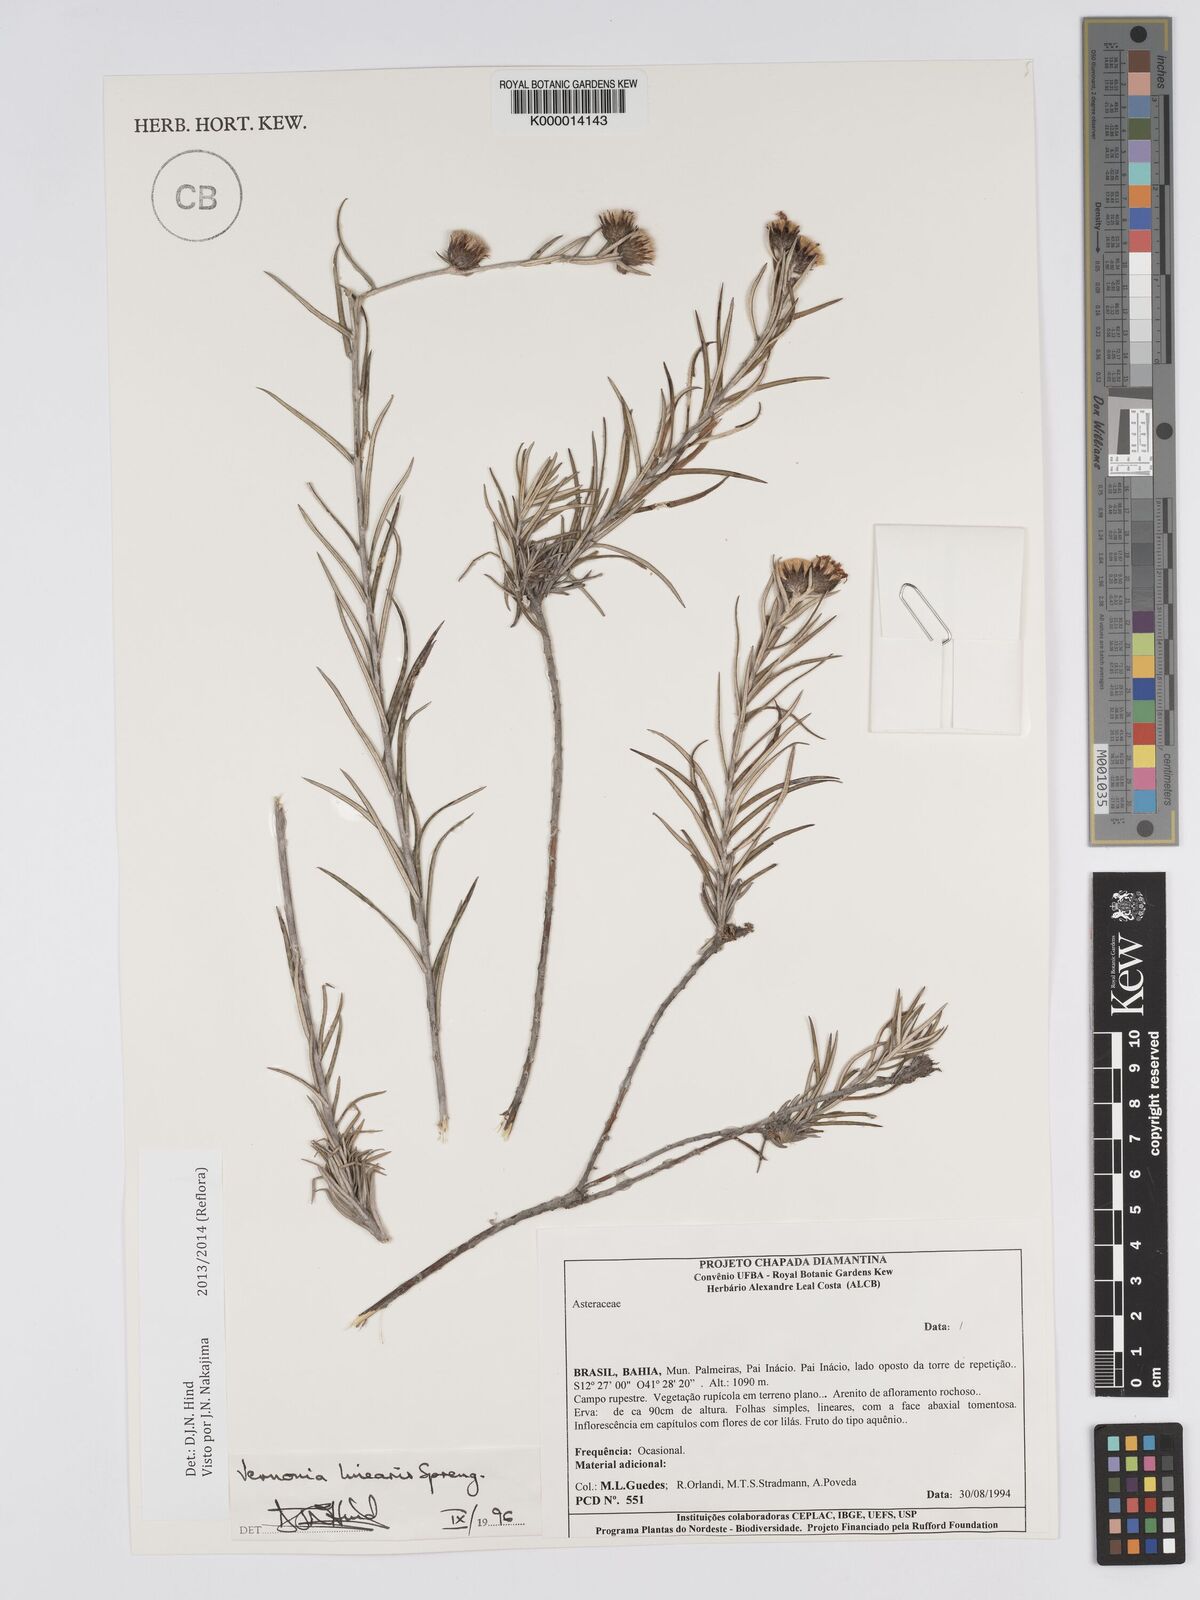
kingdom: Plantae
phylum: Tracheophyta
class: Magnoliopsida
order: Asterales
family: Asteraceae
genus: Lessingianthus
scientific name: Lessingianthus linearis
